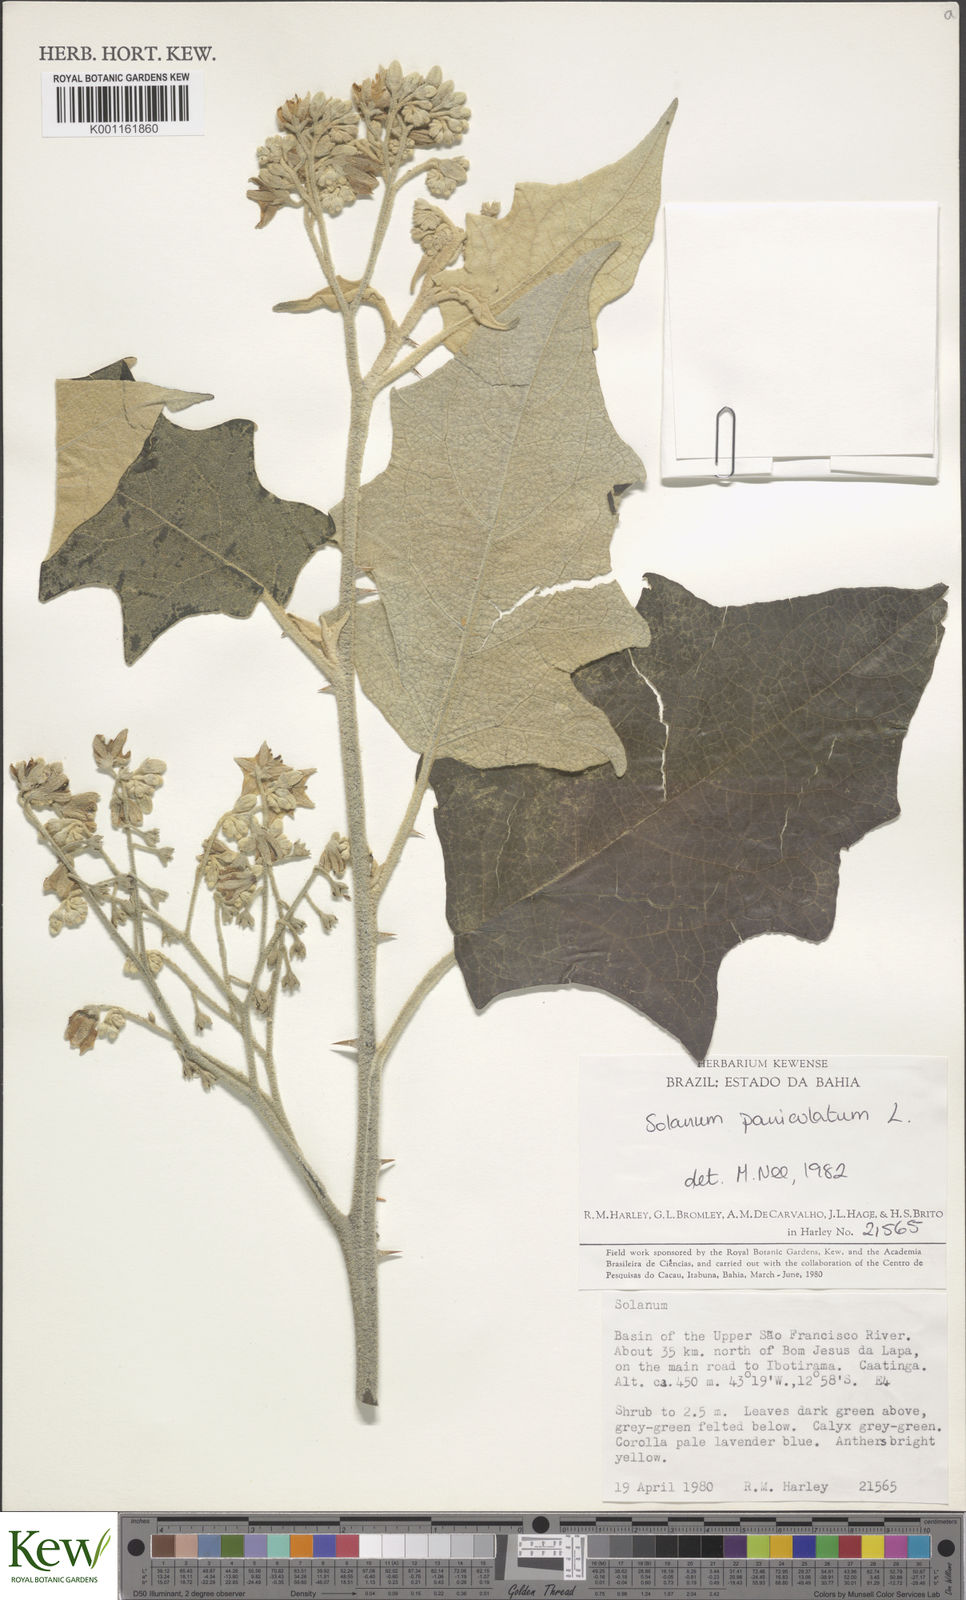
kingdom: Plantae
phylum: Tracheophyta
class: Magnoliopsida
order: Solanales
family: Solanaceae
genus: Solanum
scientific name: Solanum paniculatum
